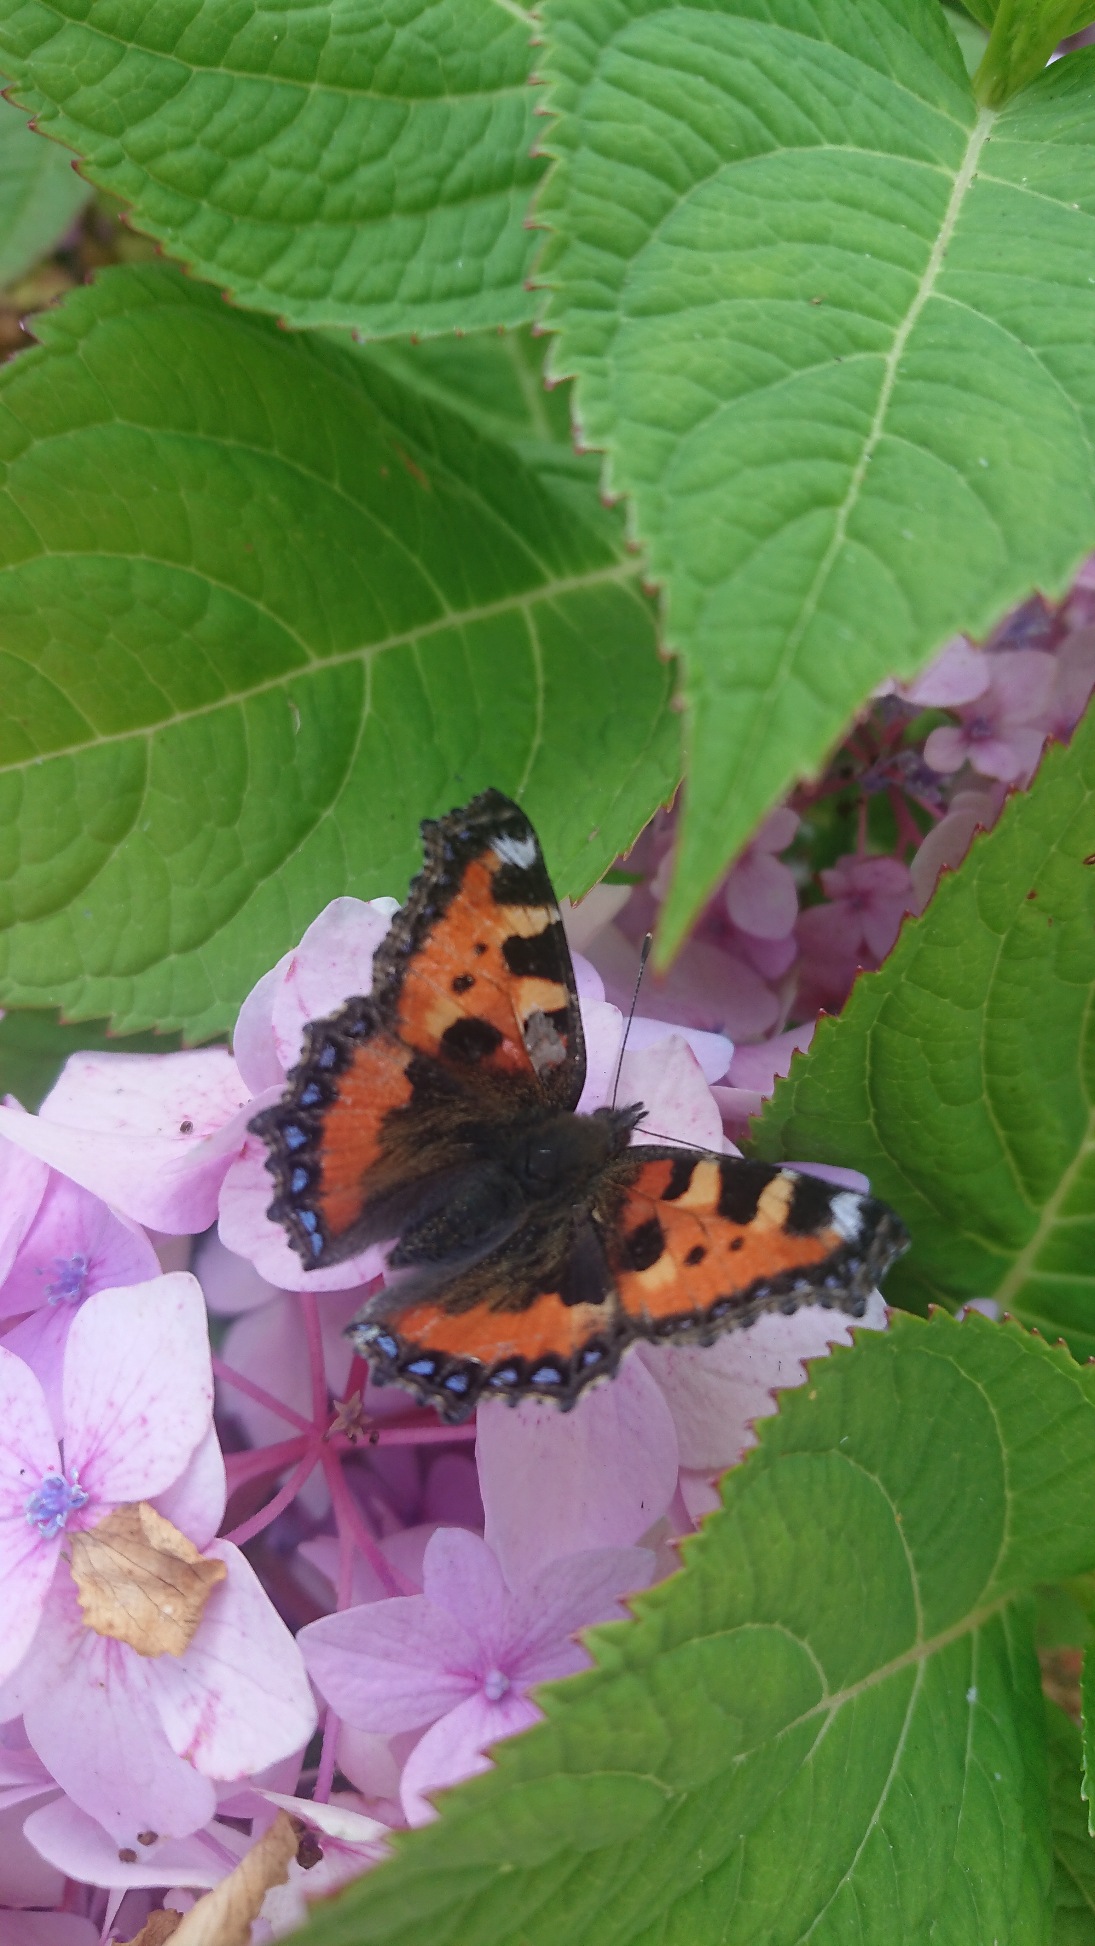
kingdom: Animalia
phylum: Arthropoda
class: Insecta
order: Lepidoptera
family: Nymphalidae
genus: Aglais
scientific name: Aglais urticae
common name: Nældens takvinge
